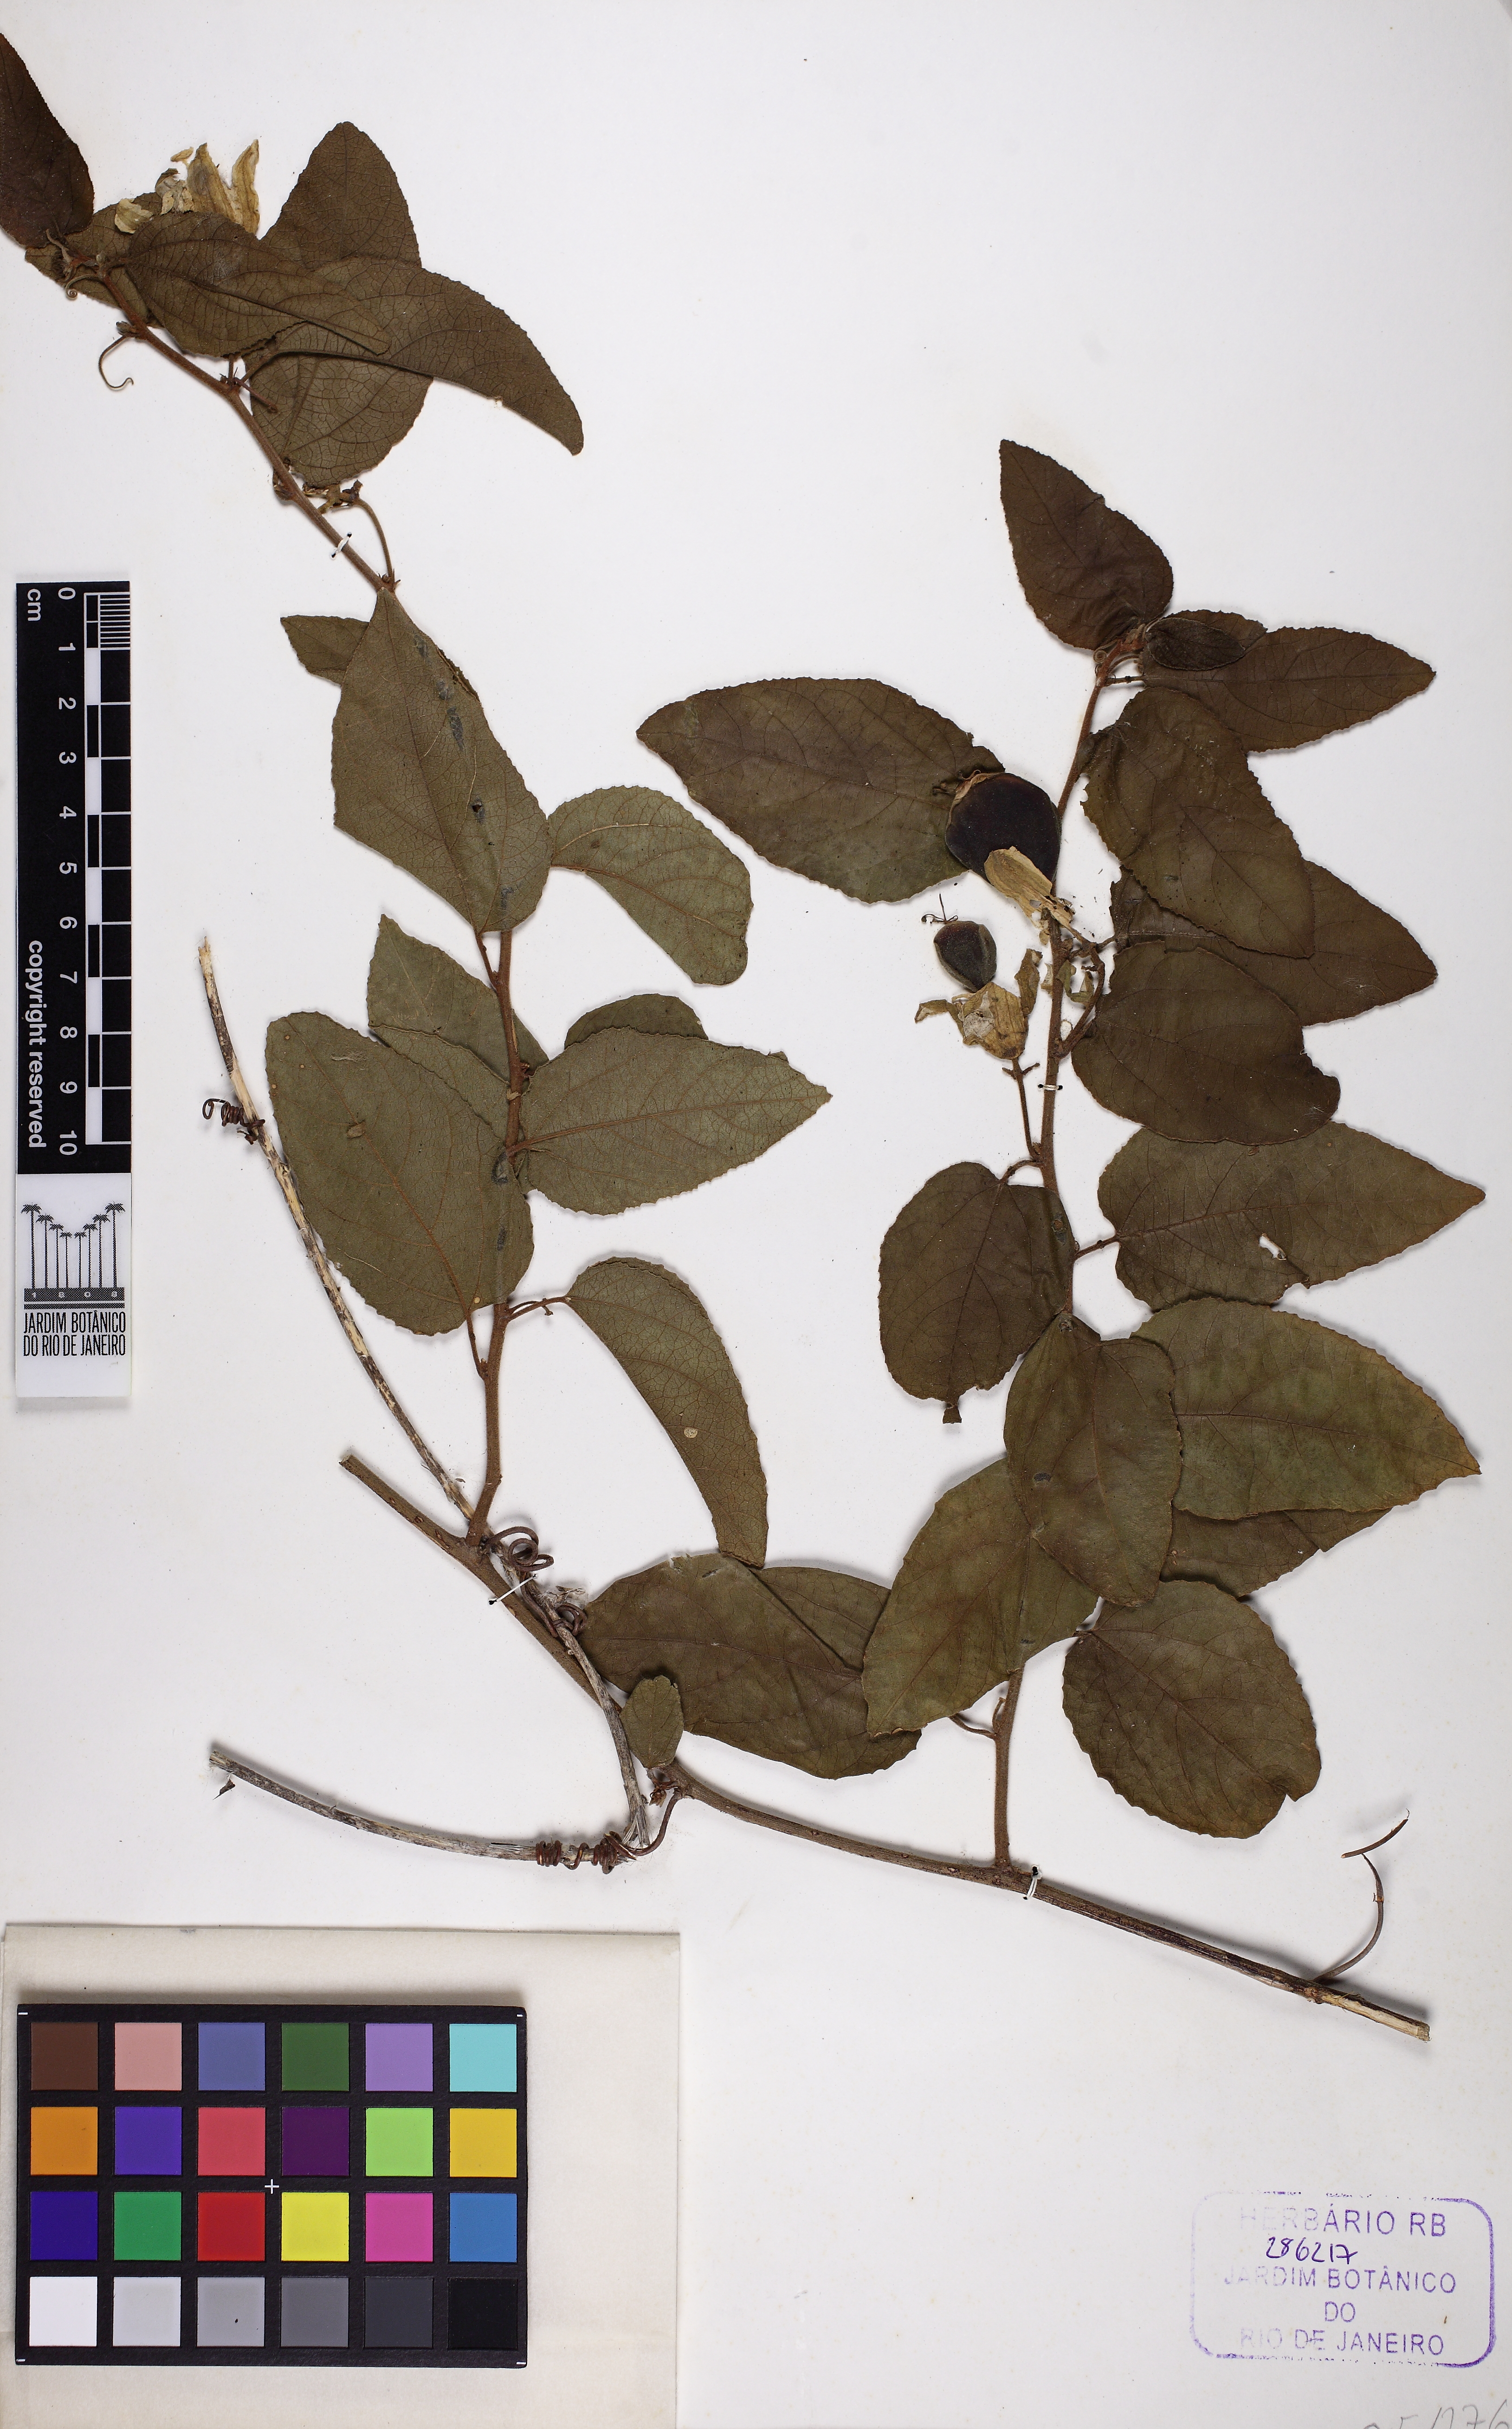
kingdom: Plantae
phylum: Tracheophyta
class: Magnoliopsida
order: Malpighiales
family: Passifloraceae
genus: Passiflora
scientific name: Passiflora farneyi
